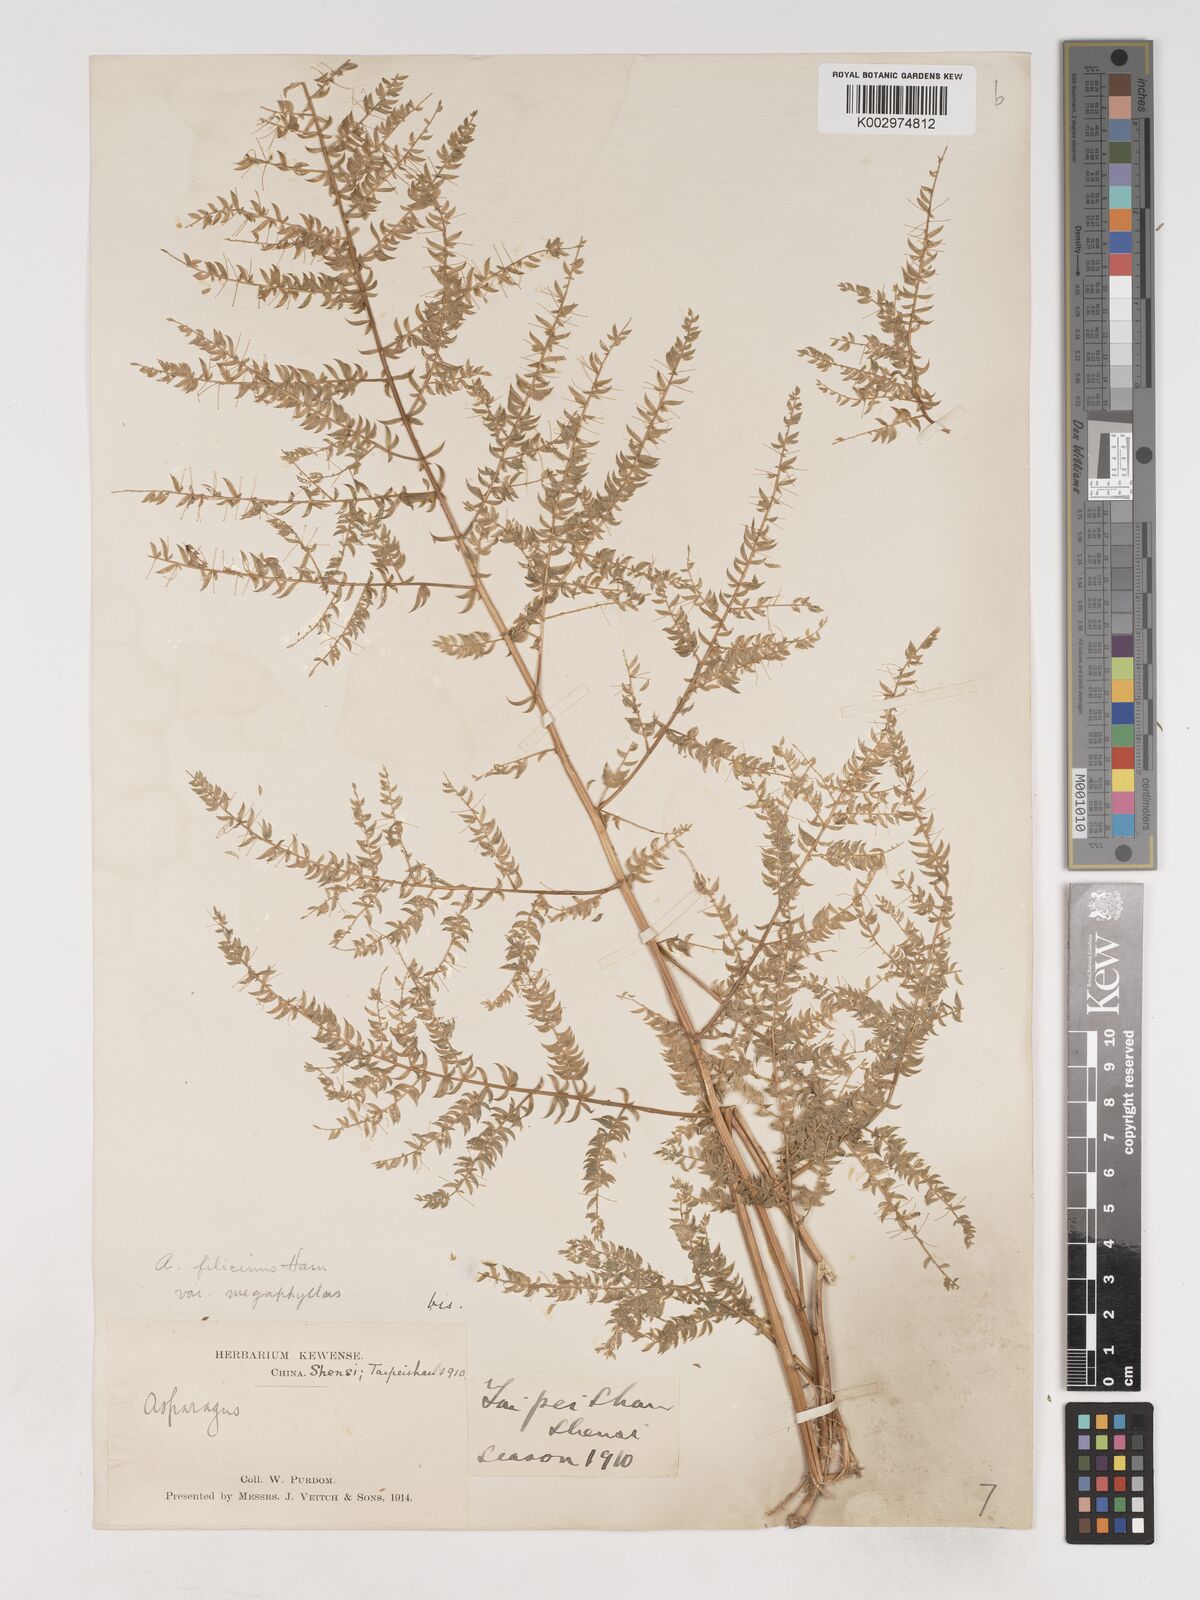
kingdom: Plantae
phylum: Tracheophyta
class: Liliopsida
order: Asparagales
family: Asparagaceae
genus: Asparagus
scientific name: Asparagus filicinus
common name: Fern asparagus
